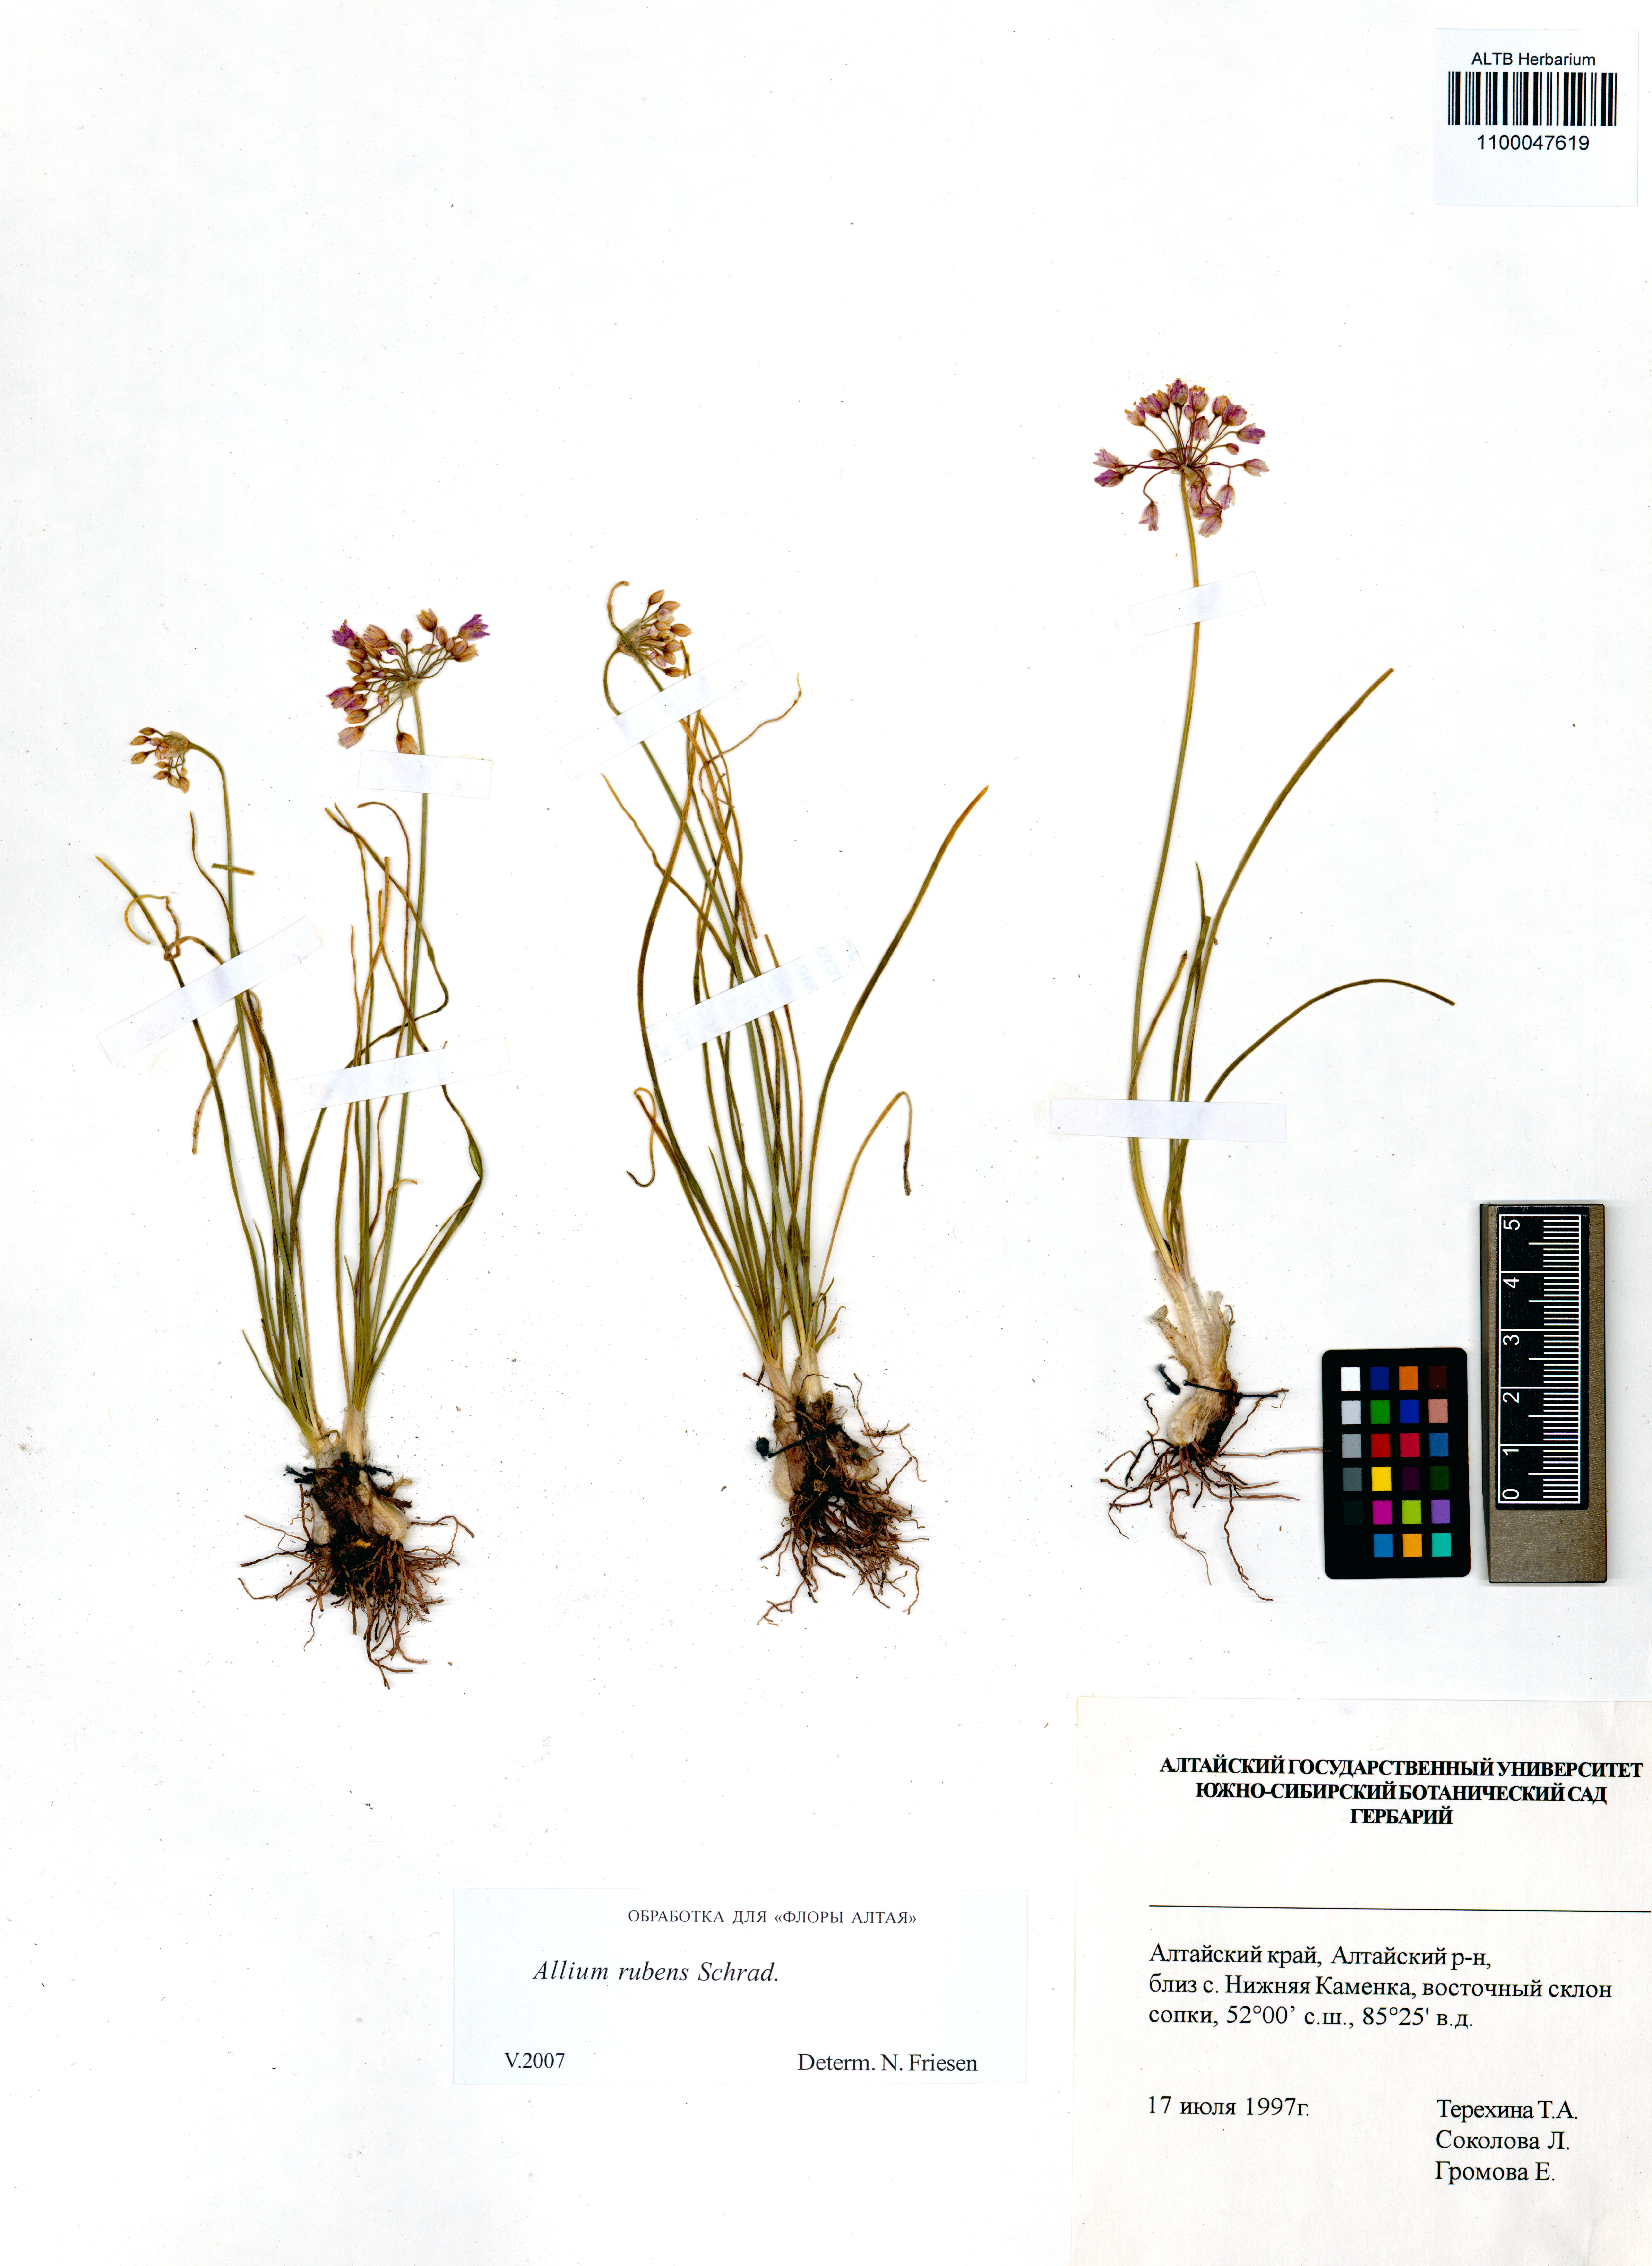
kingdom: Plantae
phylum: Tracheophyta
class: Liliopsida
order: Asparagales
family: Amaryllidaceae
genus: Allium
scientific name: Allium rubens
